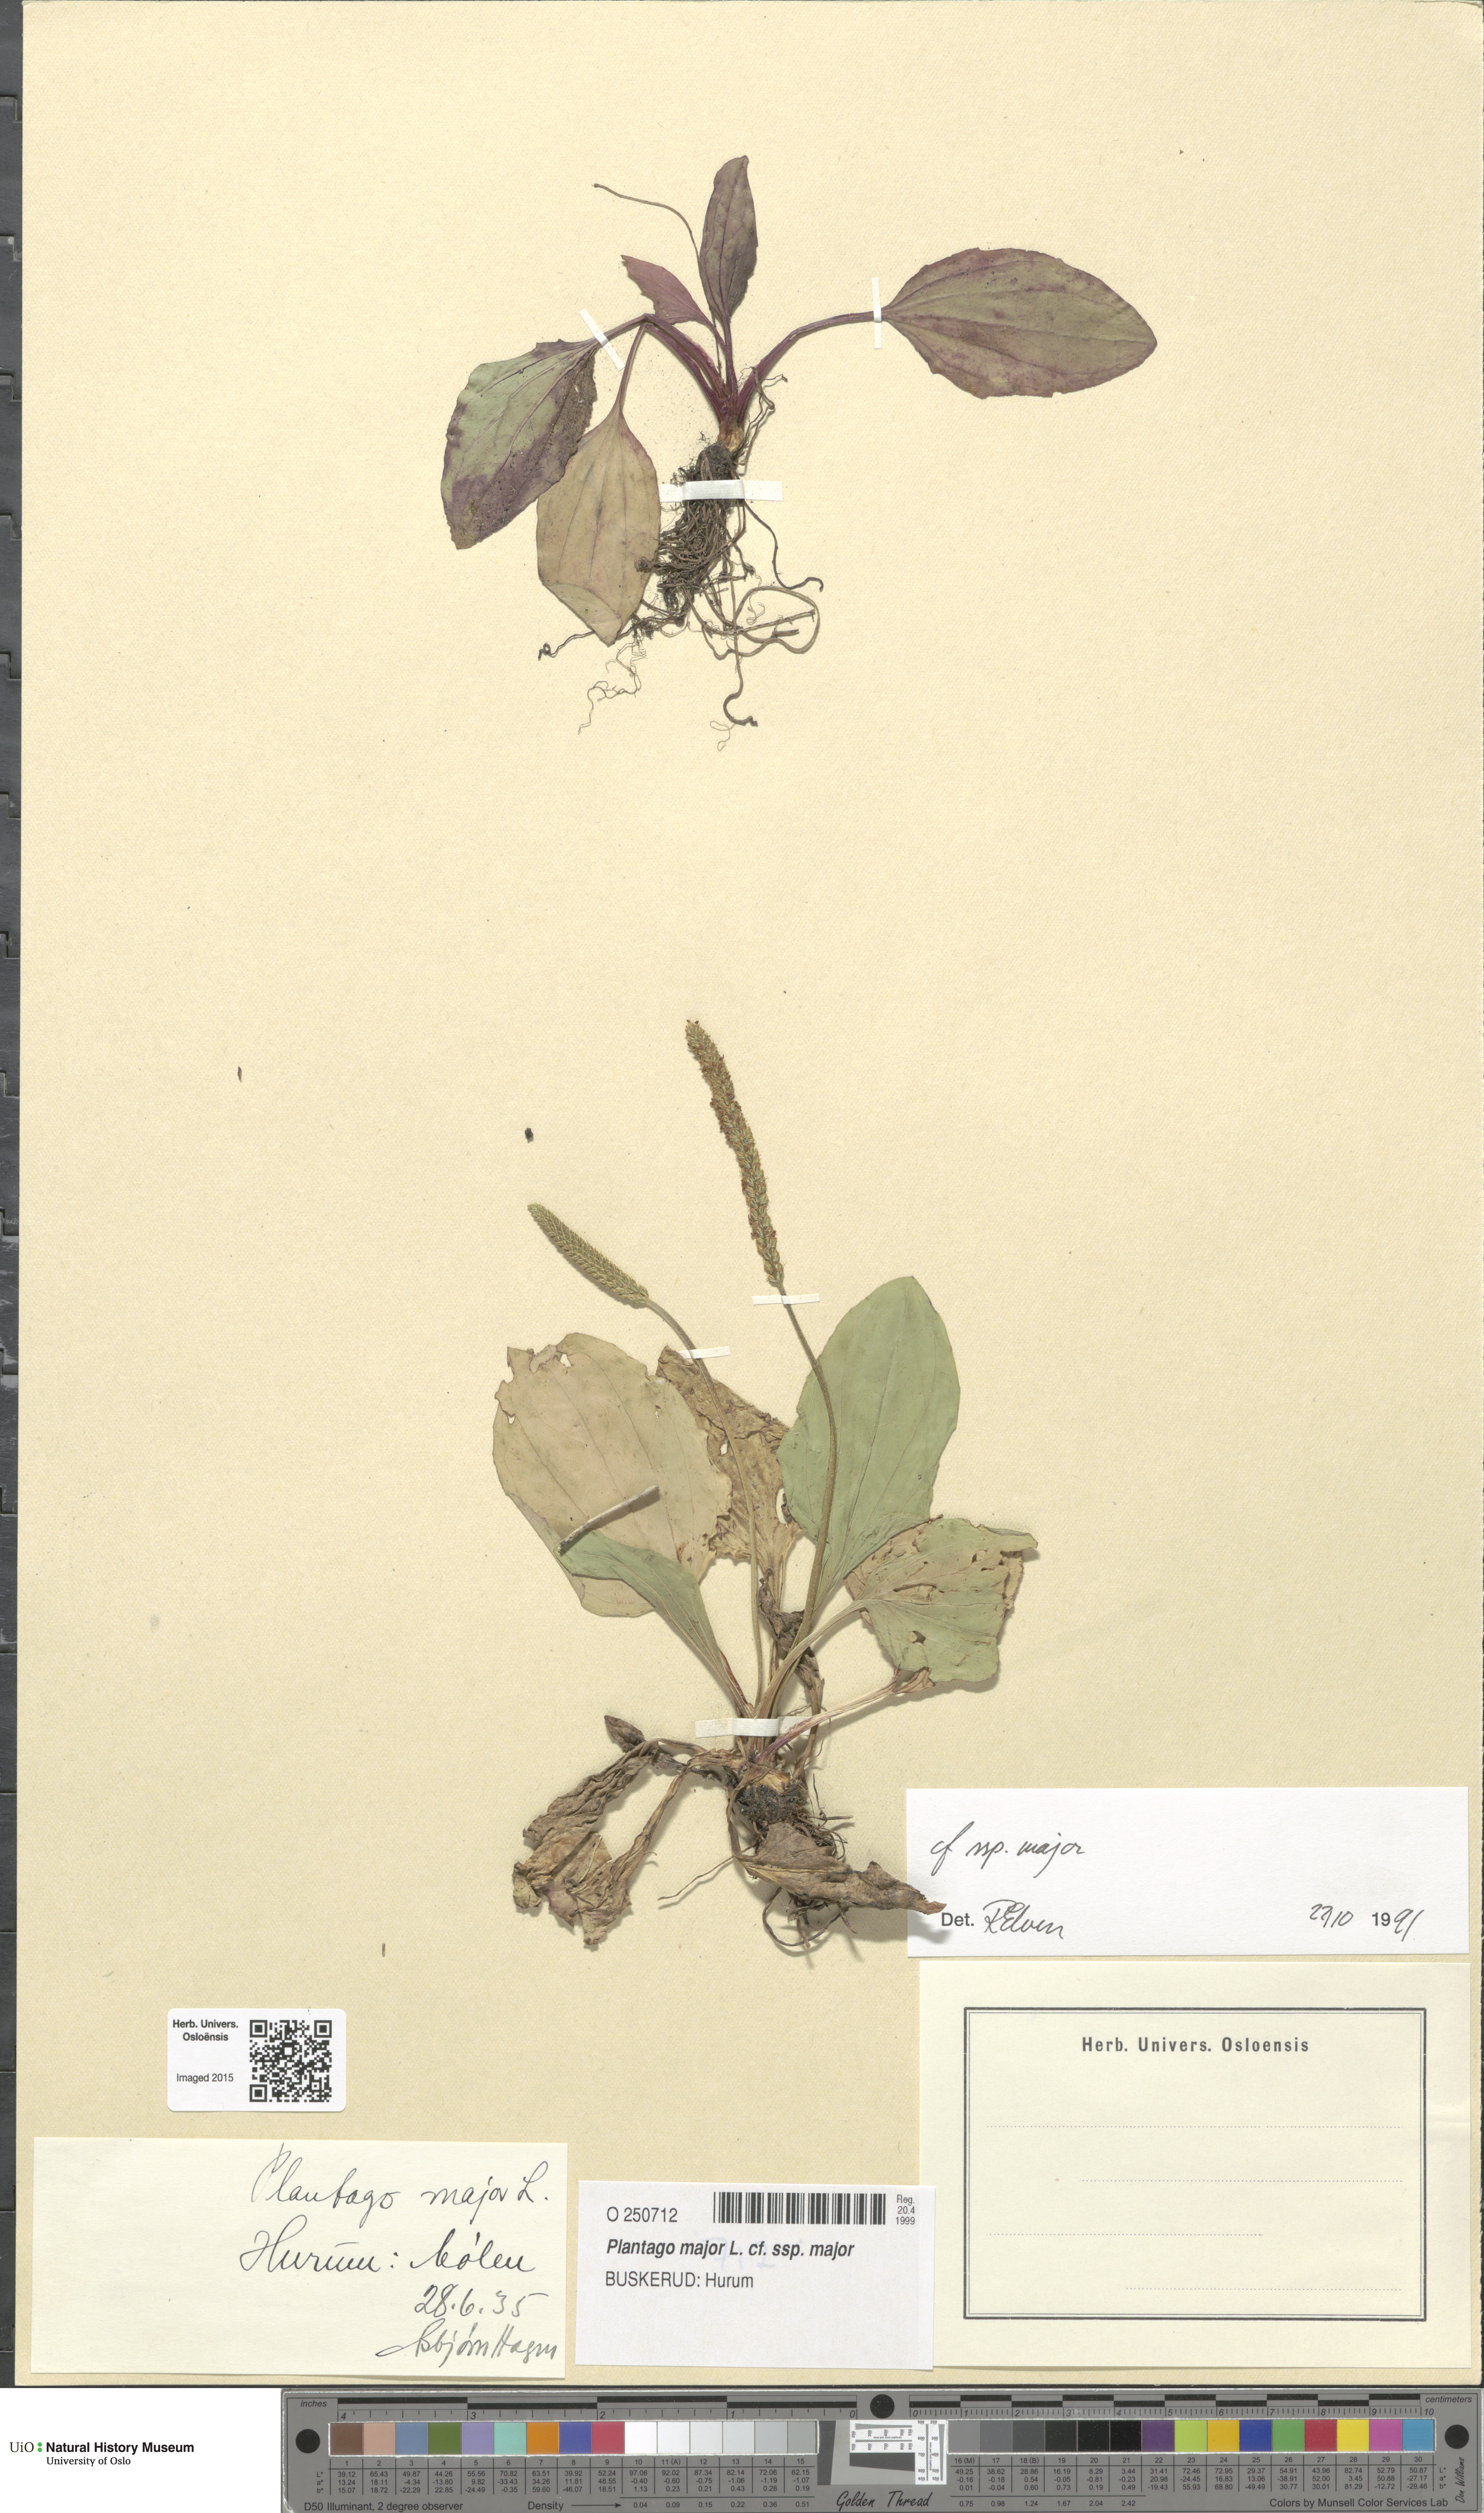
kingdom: Plantae
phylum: Tracheophyta
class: Magnoliopsida
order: Lamiales
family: Plantaginaceae
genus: Plantago
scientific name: Plantago major
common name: Common plantain
